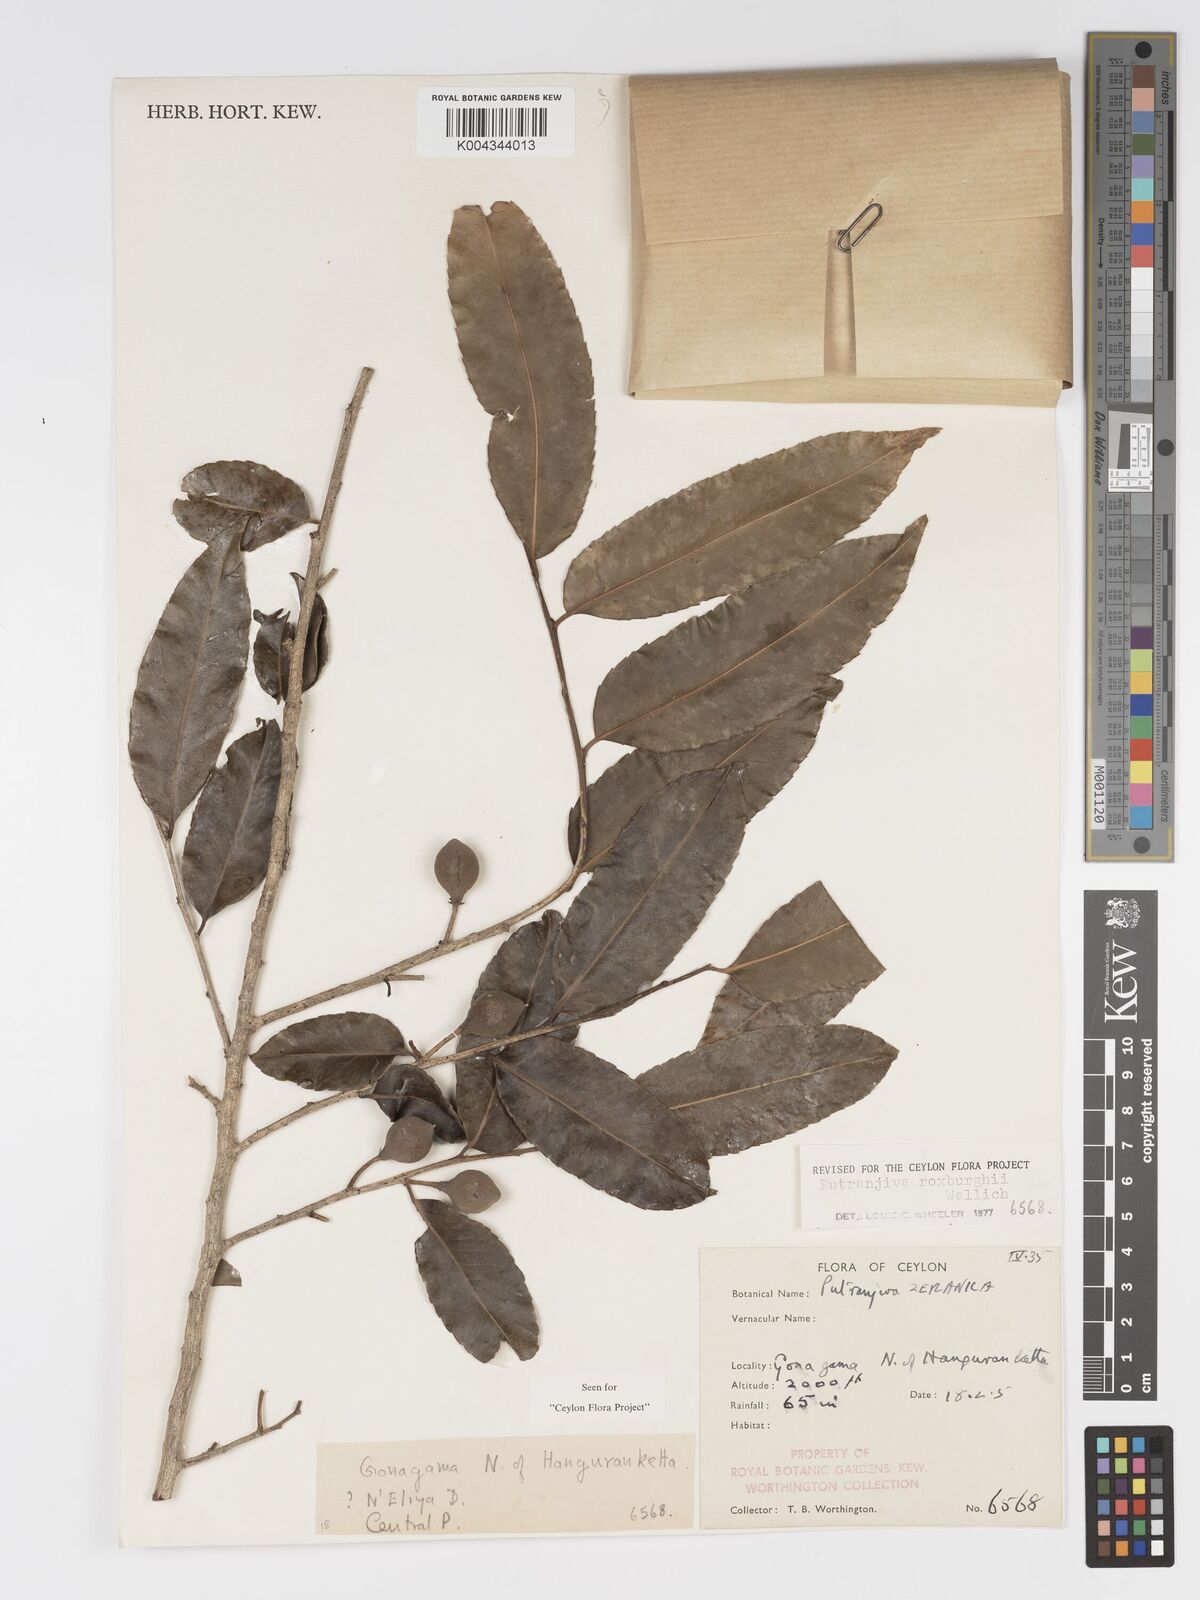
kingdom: Plantae
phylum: Tracheophyta
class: Magnoliopsida
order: Malpighiales
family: Putranjivaceae
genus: Putranjiva
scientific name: Putranjiva roxburghii
